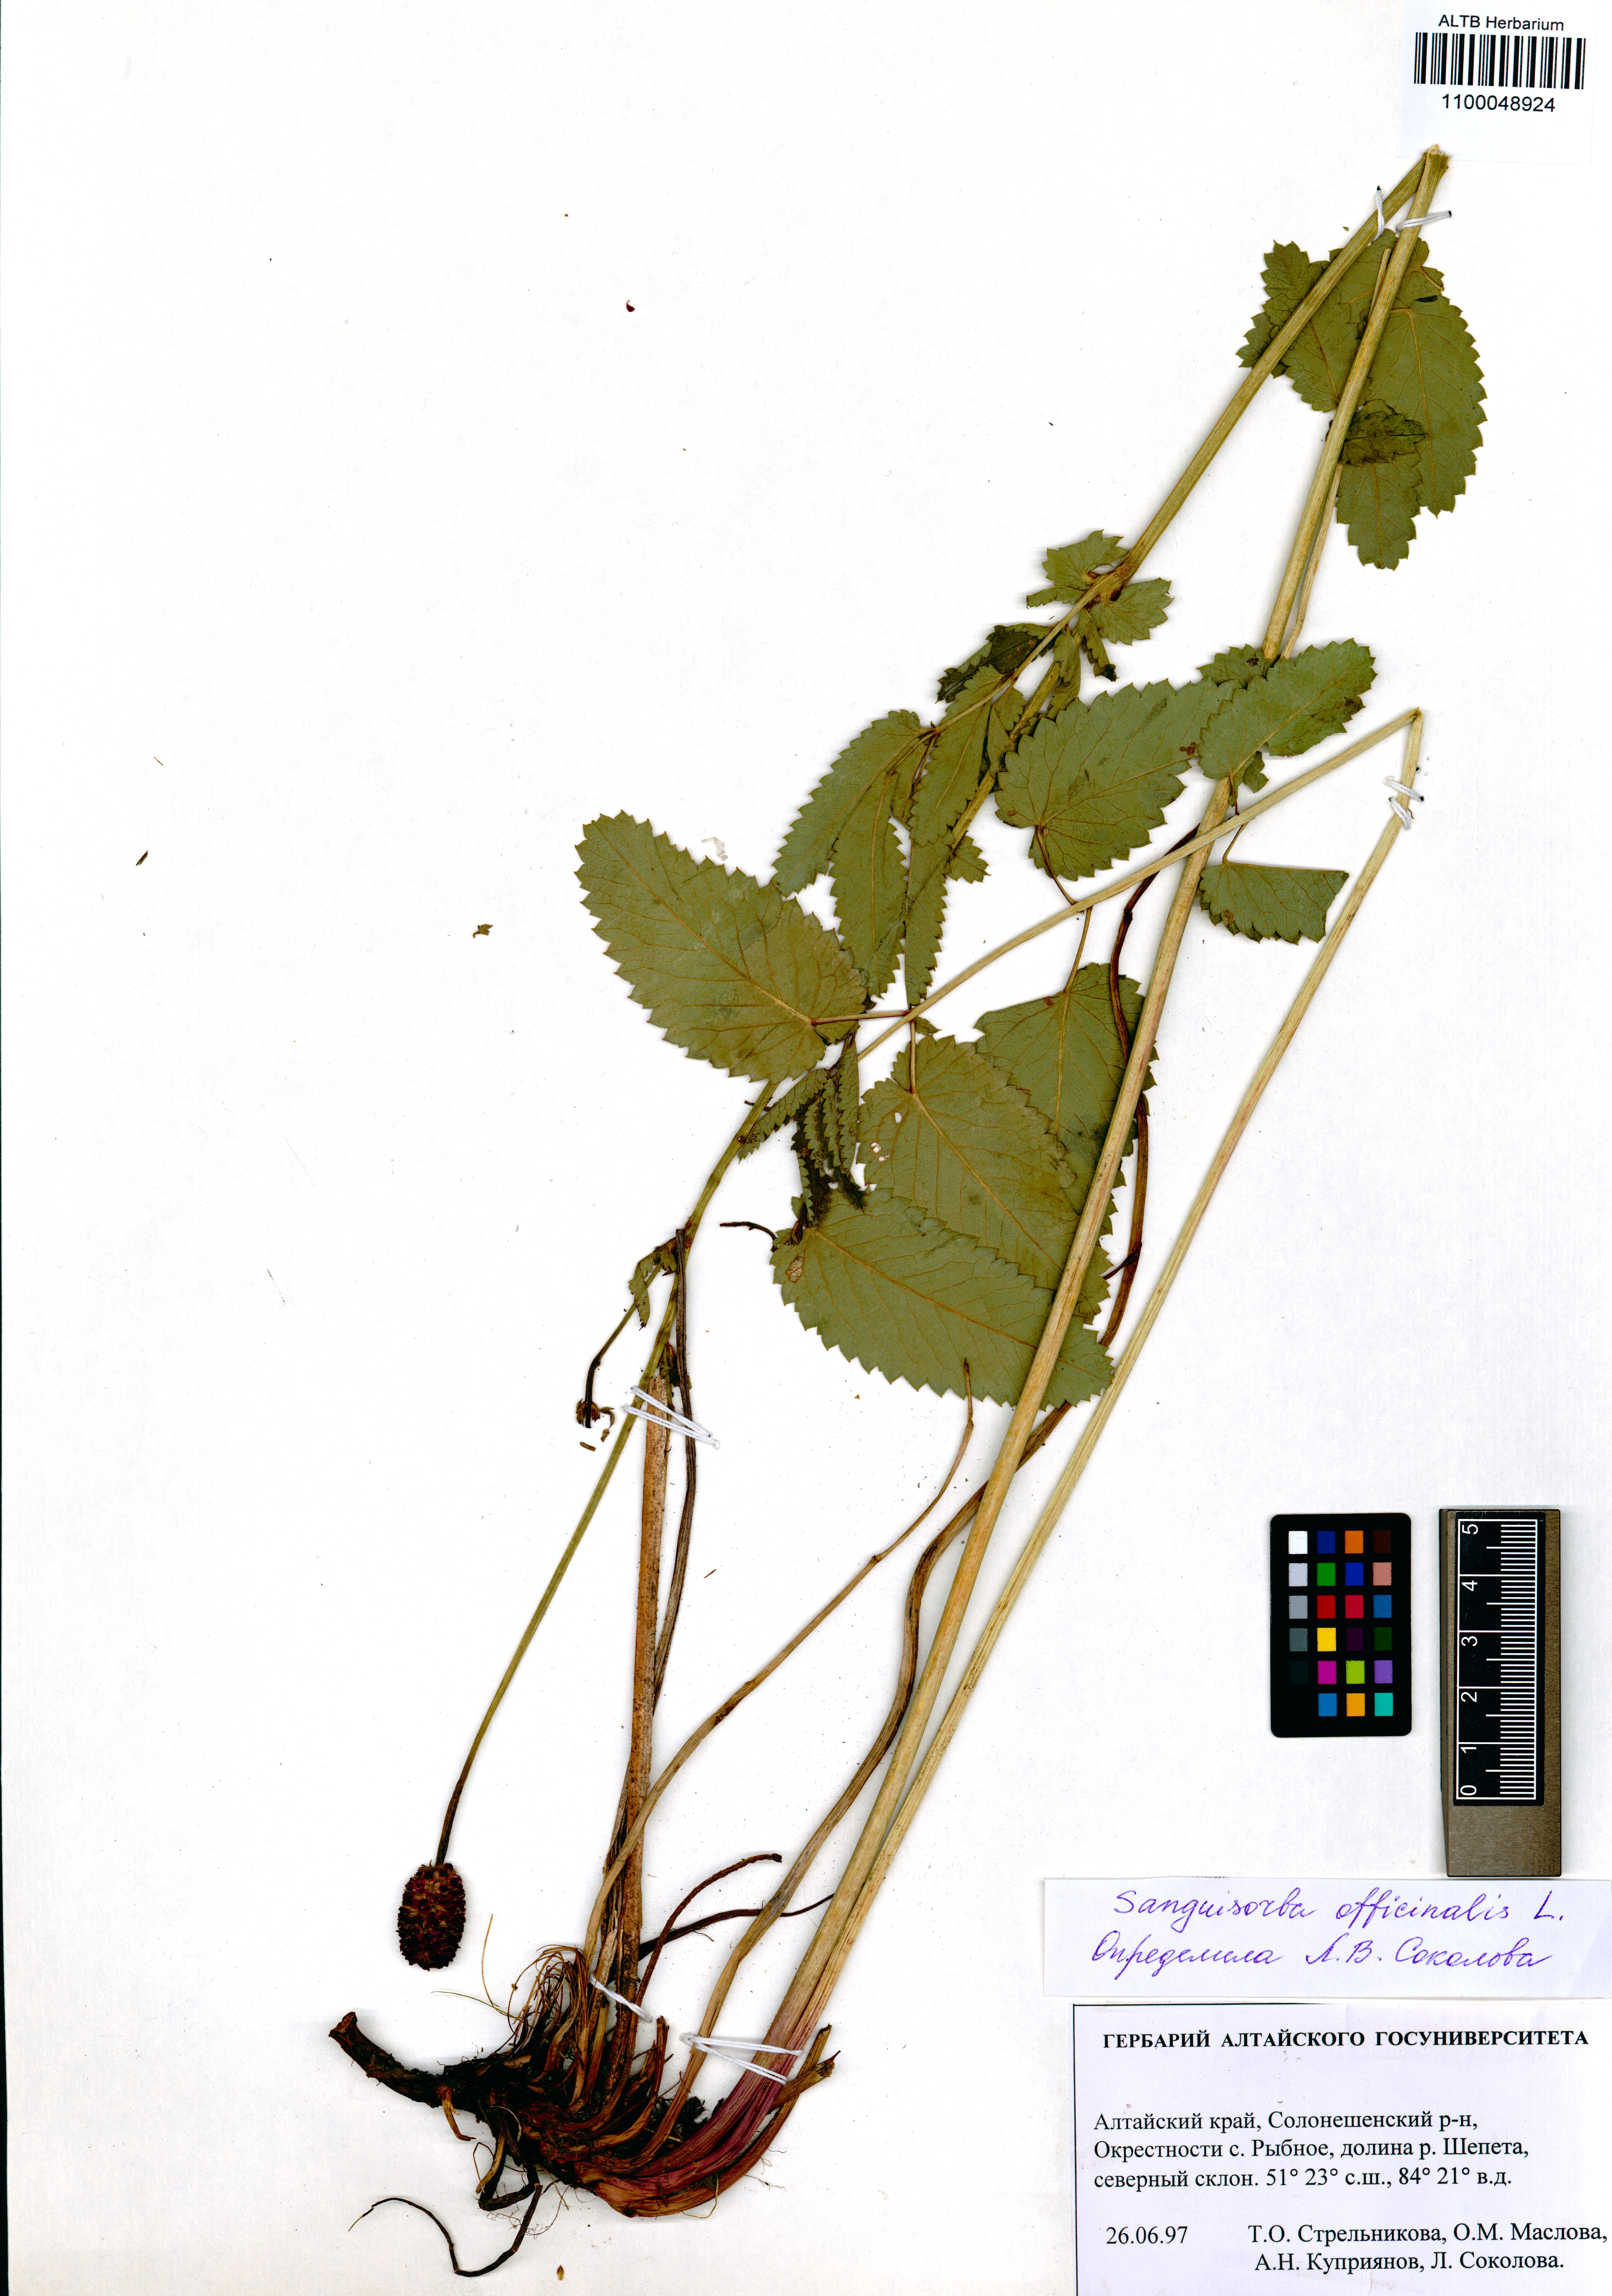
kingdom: Plantae
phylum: Tracheophyta
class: Magnoliopsida
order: Rosales
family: Rosaceae
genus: Sanguisorba
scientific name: Sanguisorba officinalis
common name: Great burnet
